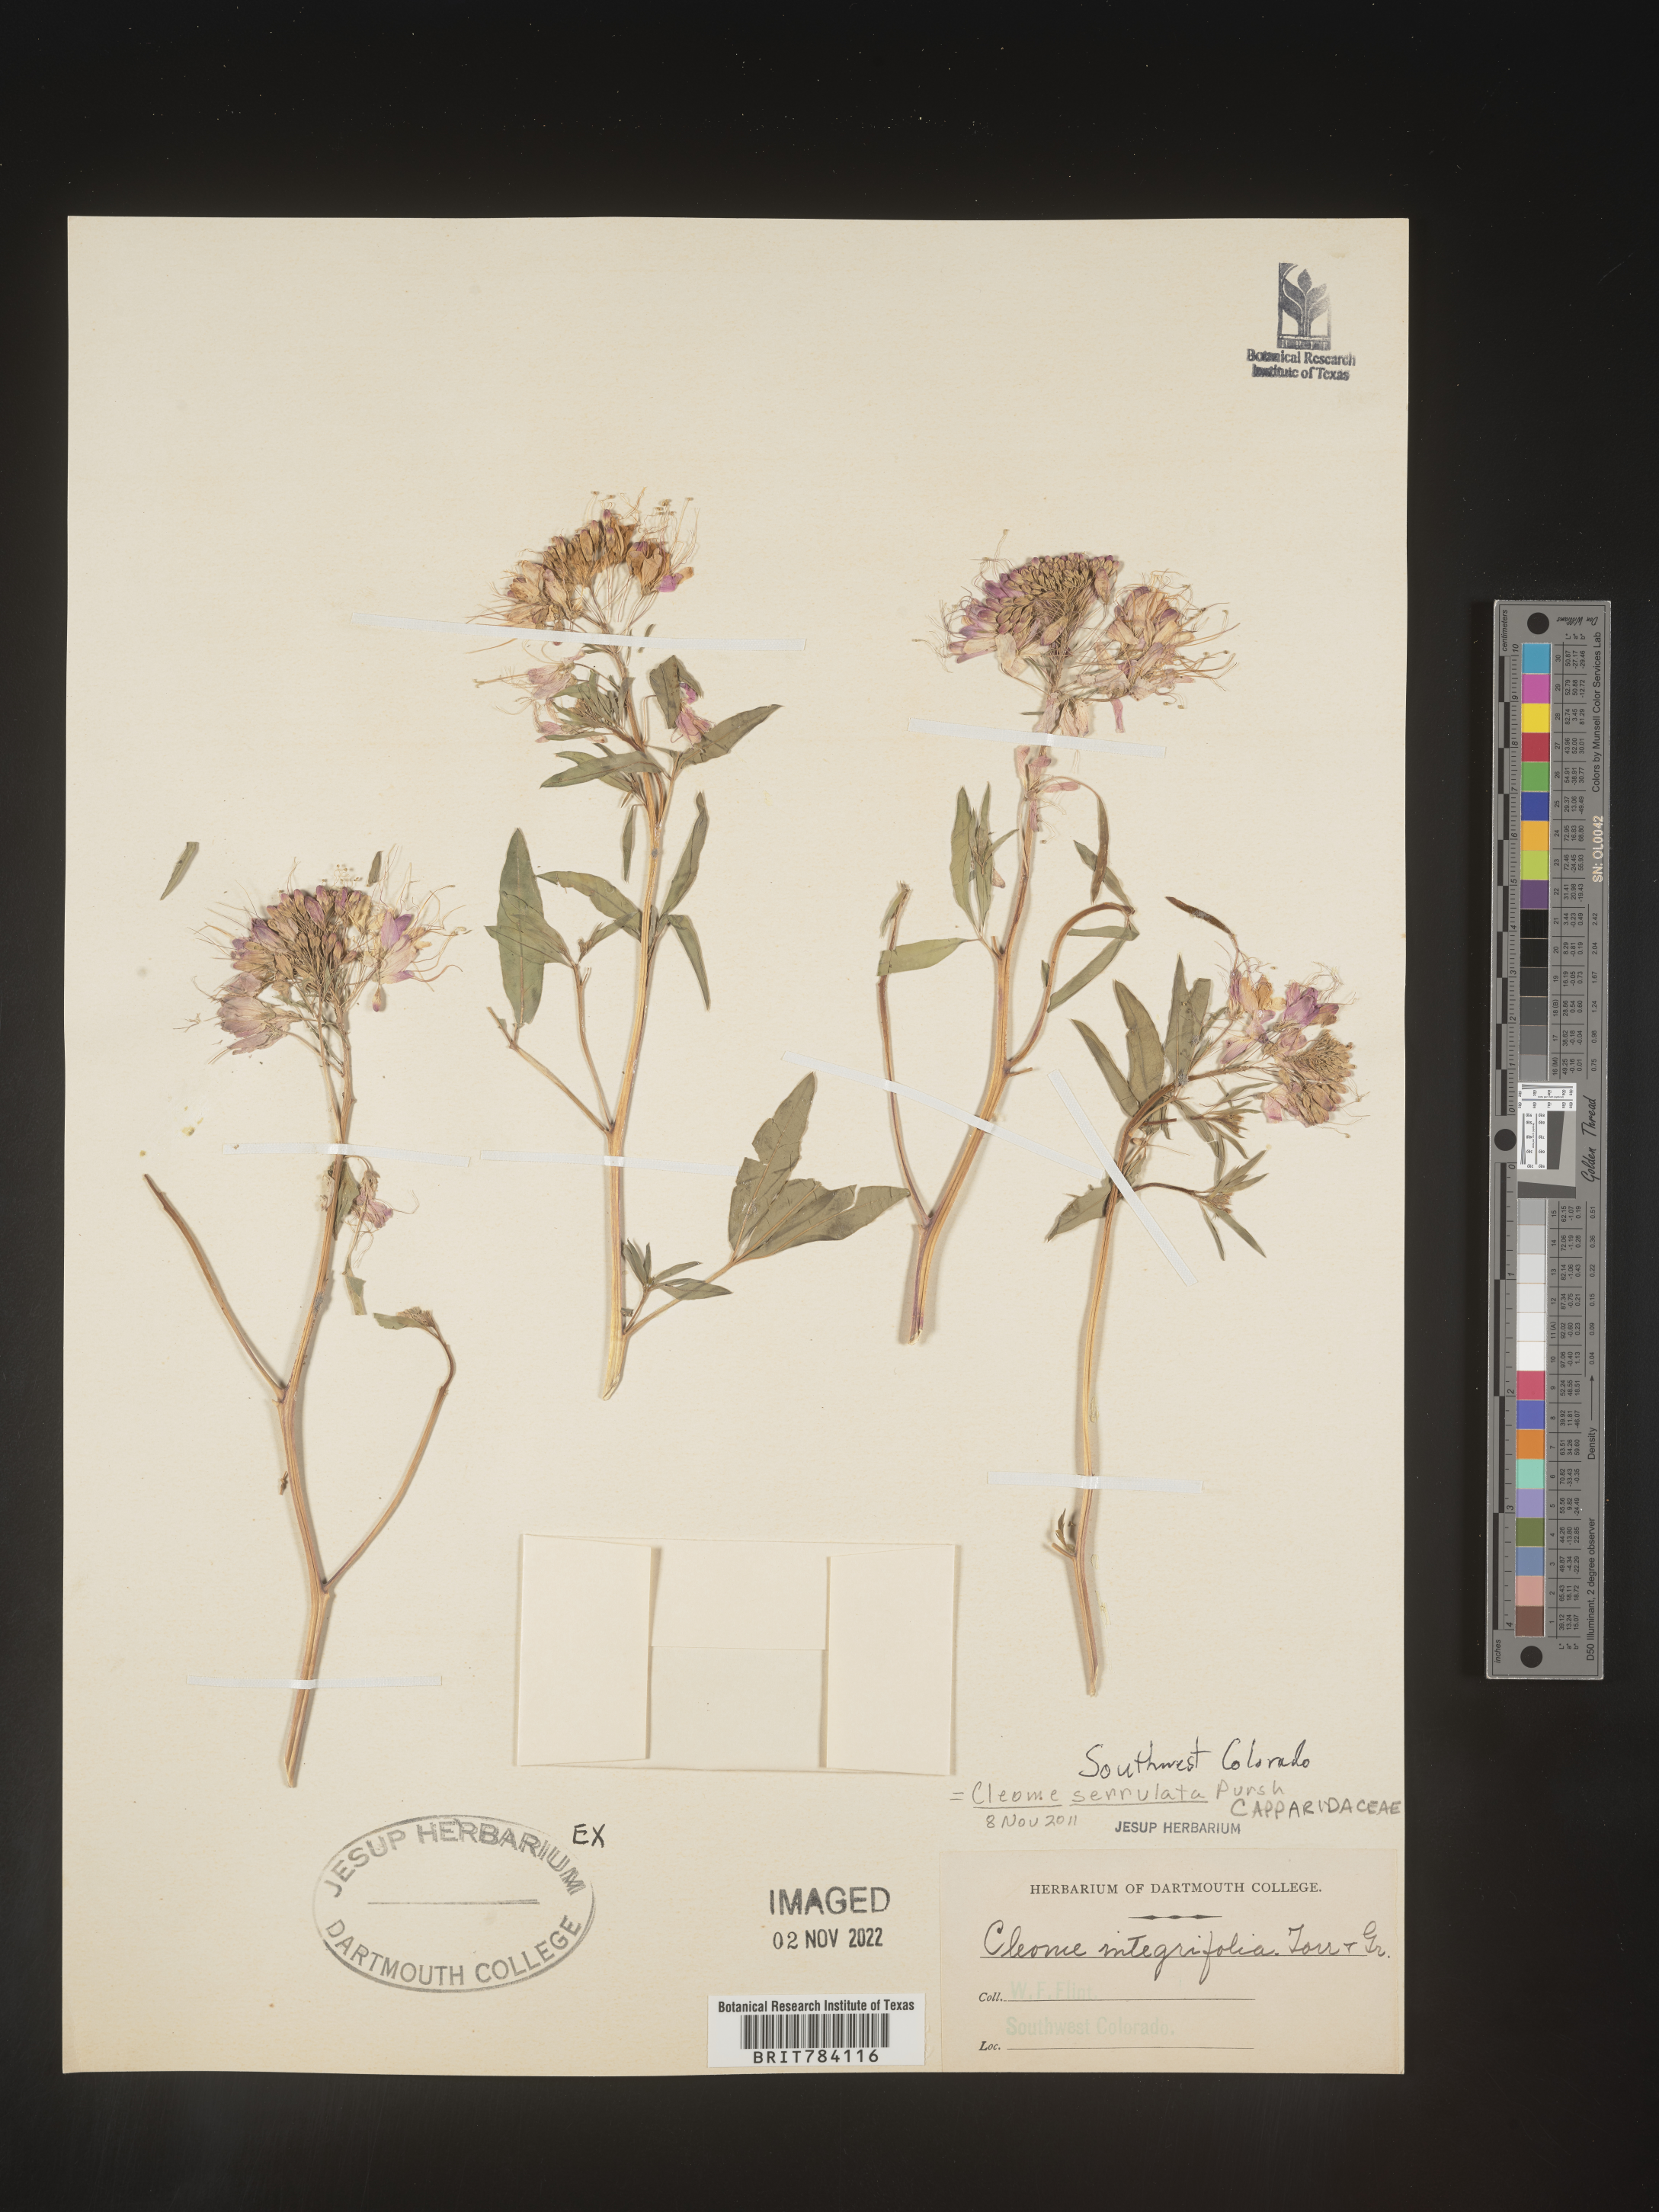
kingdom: Plantae
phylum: Tracheophyta
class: Magnoliopsida
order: Brassicales
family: Cleomaceae
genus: Cleomella
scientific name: Cleomella serrulata
